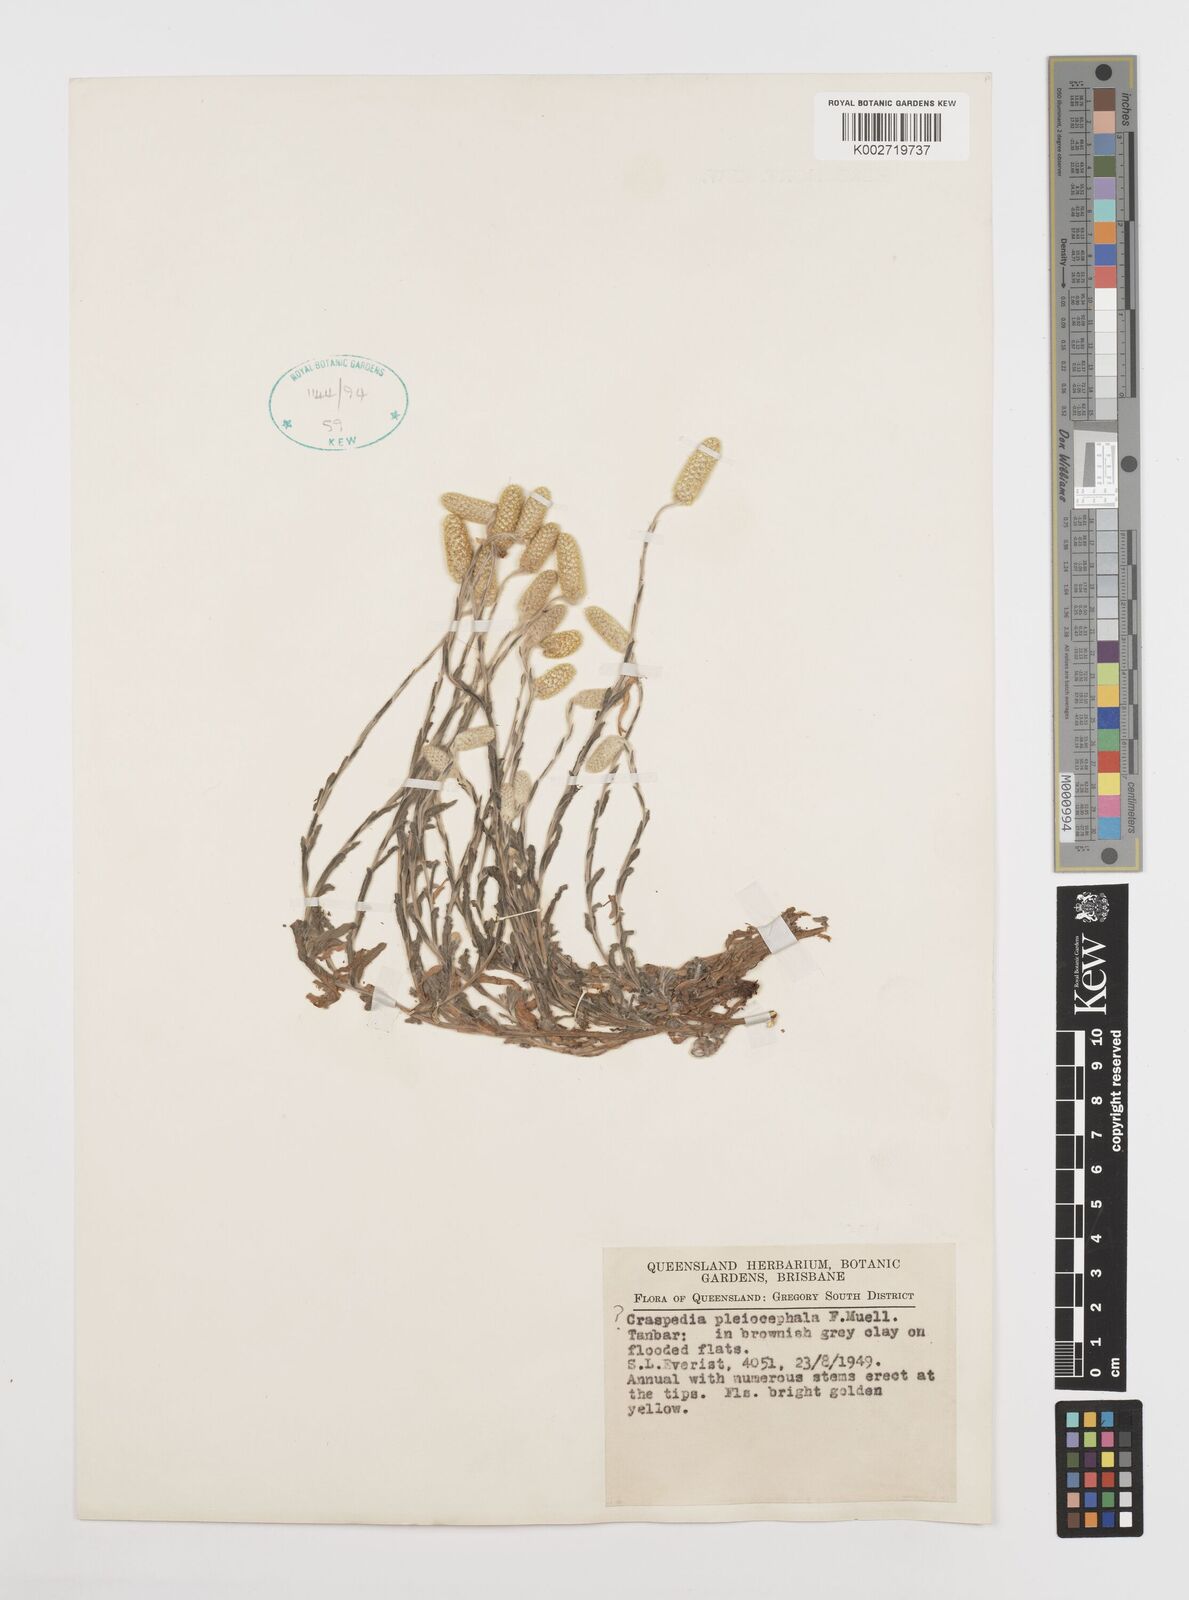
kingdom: Plantae
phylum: Tracheophyta
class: Magnoliopsida
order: Asterales
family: Asteraceae
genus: Pycnosorus
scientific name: Pycnosorus pleiocephalus
